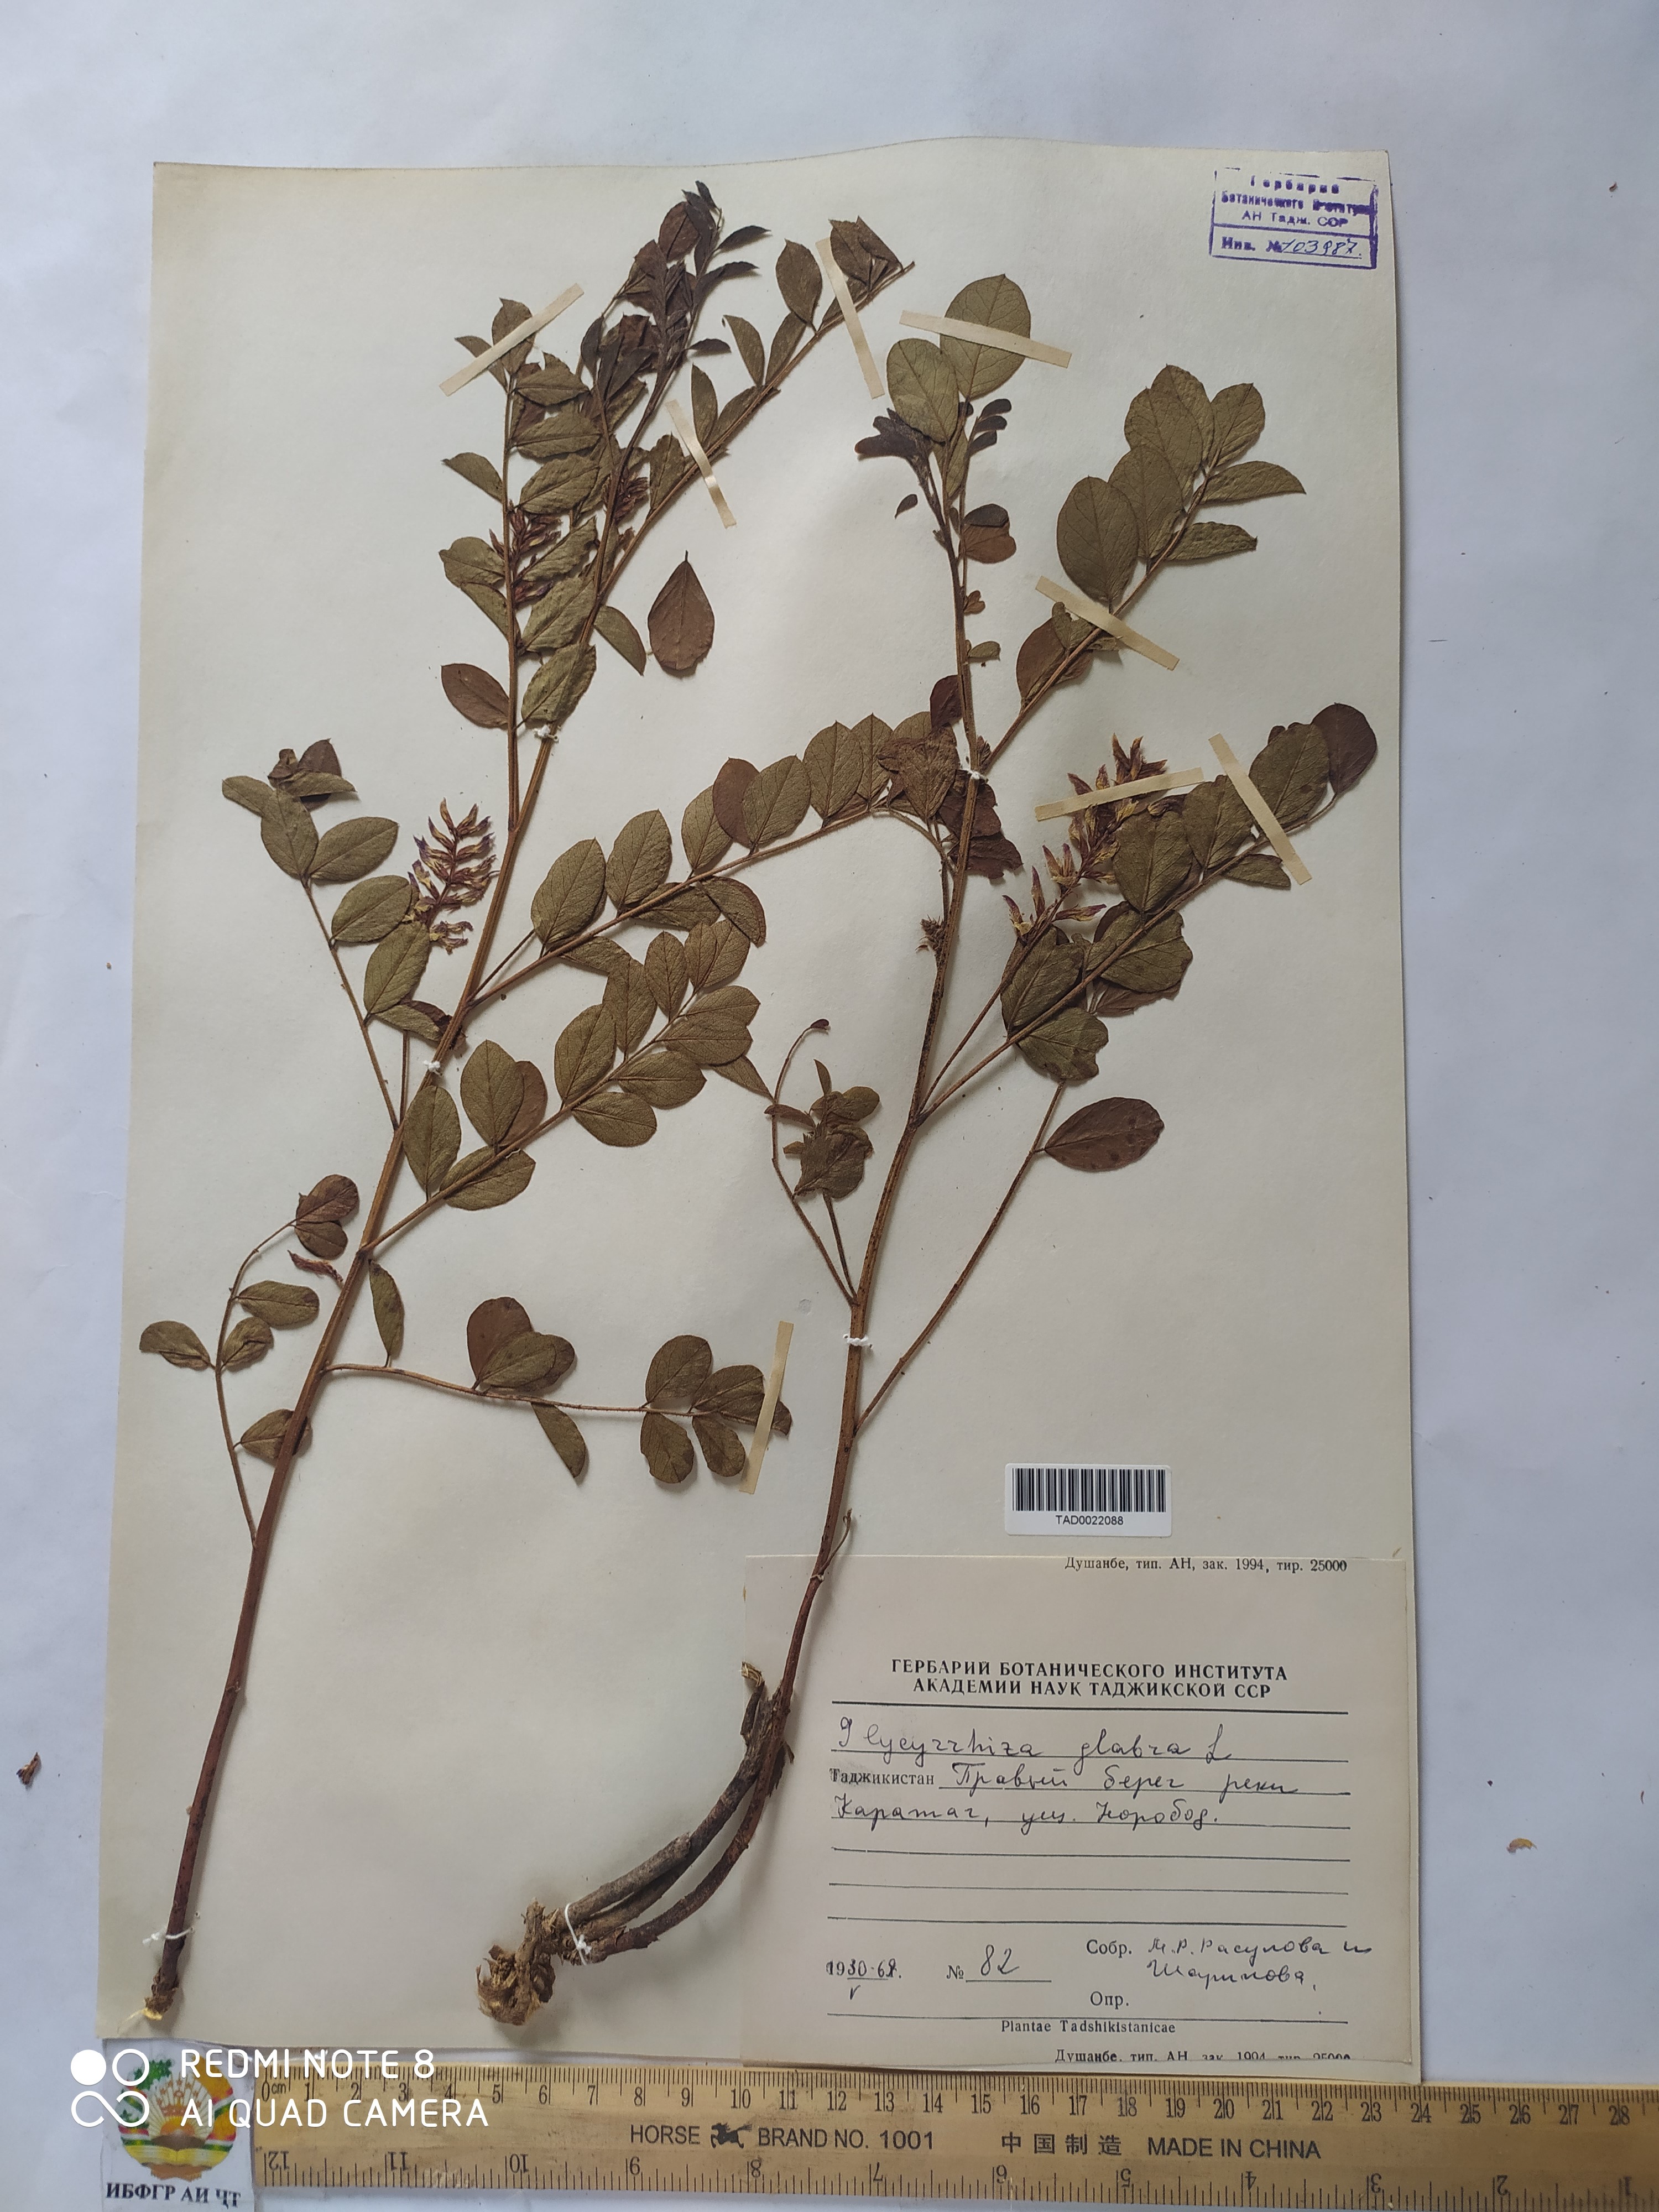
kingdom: Plantae
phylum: Tracheophyta
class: Magnoliopsida
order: Fabales
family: Fabaceae
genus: Glycyrrhiza
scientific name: Glycyrrhiza glabra
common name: Liquorice
